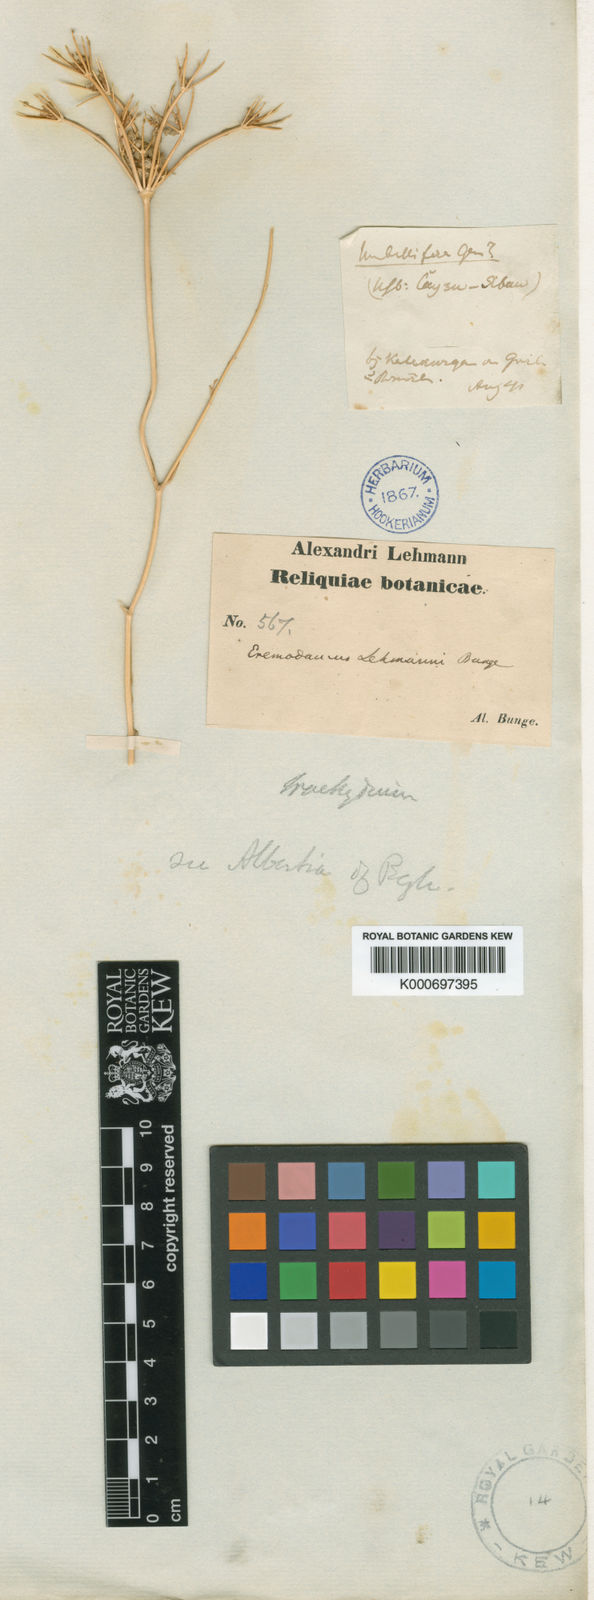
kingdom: Plantae
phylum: Tracheophyta
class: Magnoliopsida
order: Apiales
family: Apiaceae
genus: Eremodaucus
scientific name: Eremodaucus lehmannii
